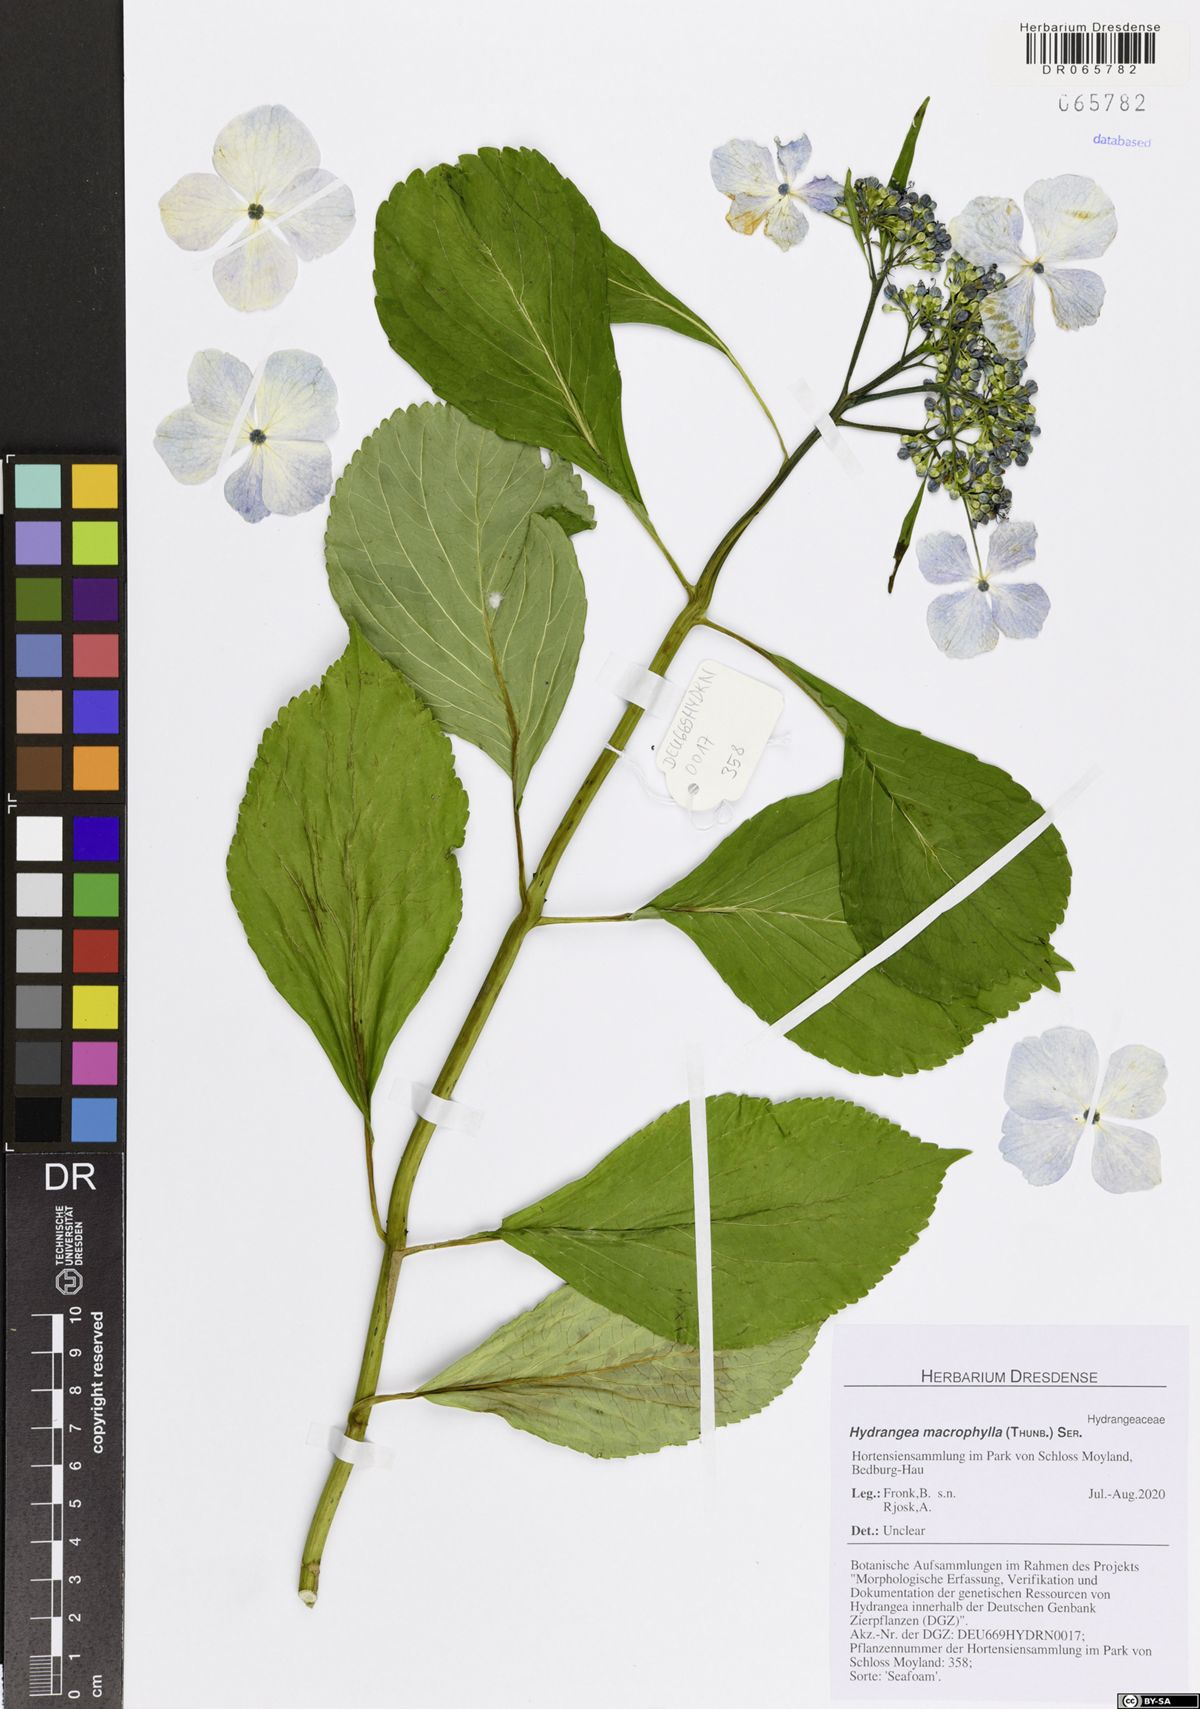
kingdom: Plantae
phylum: Tracheophyta
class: Magnoliopsida
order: Cornales
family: Hydrangeaceae
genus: Hydrangea
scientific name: Hydrangea macrophylla
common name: Hydrangea
